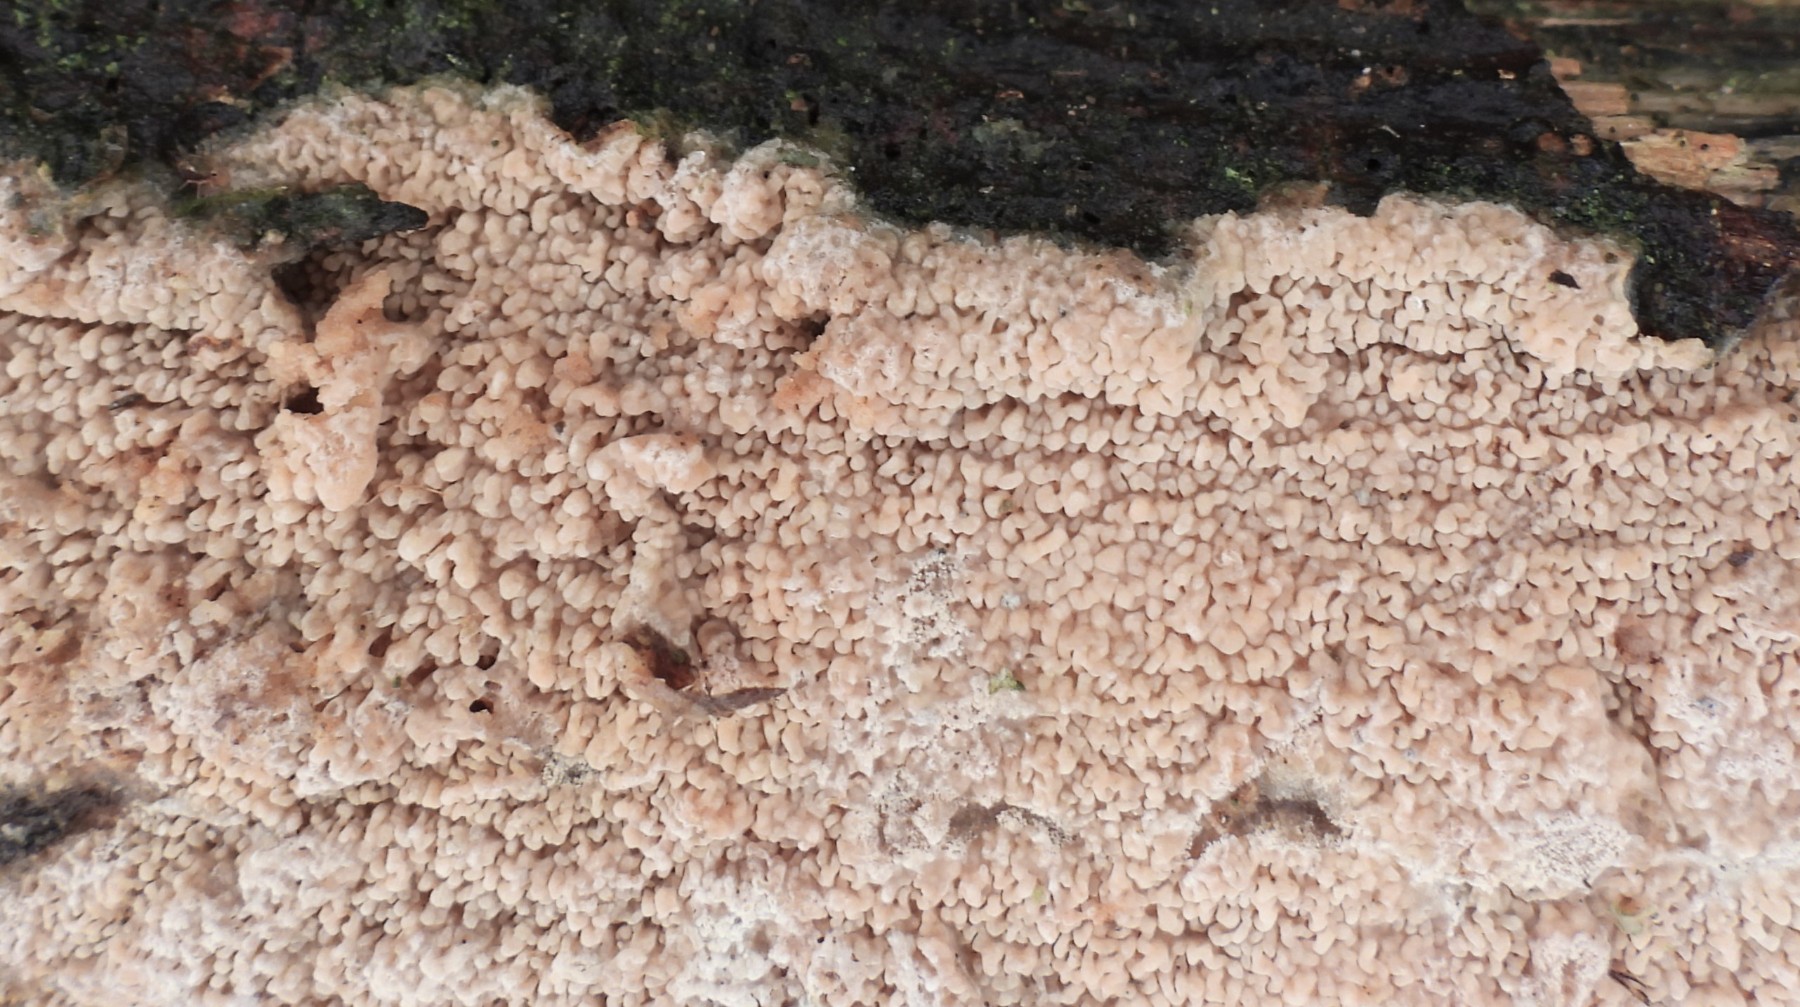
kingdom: Fungi
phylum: Basidiomycota
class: Agaricomycetes
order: Polyporales
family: Meruliaceae
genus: Phlebia
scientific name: Phlebia rufa
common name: ege-åresvamp
